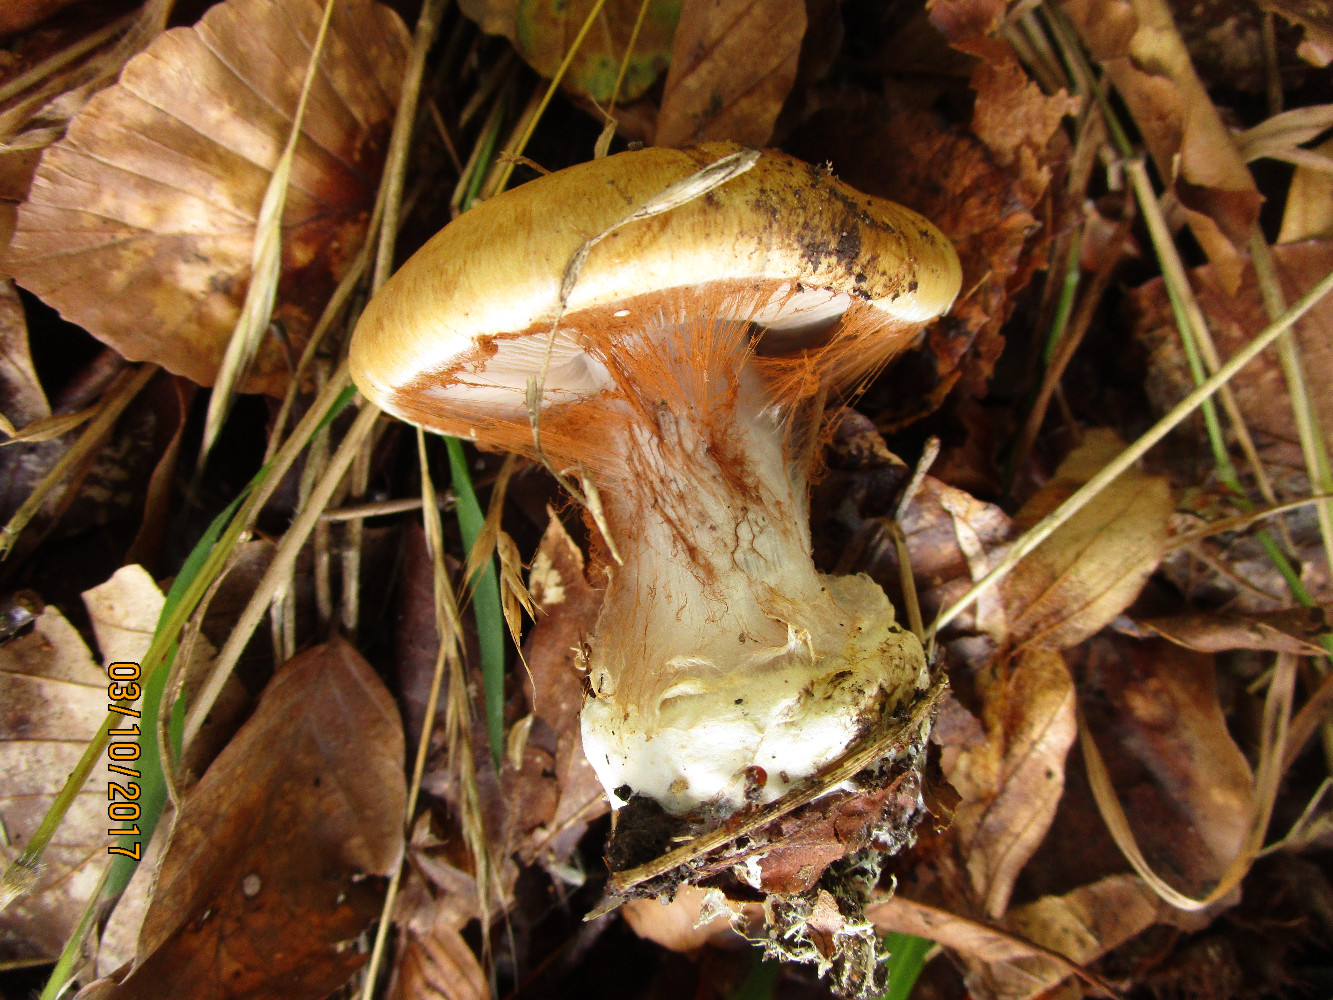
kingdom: Fungi
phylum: Basidiomycota
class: Agaricomycetes
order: Agaricales
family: Cortinariaceae
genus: Cortinarius
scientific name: Cortinarius anserinus
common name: bøge-slørhat
